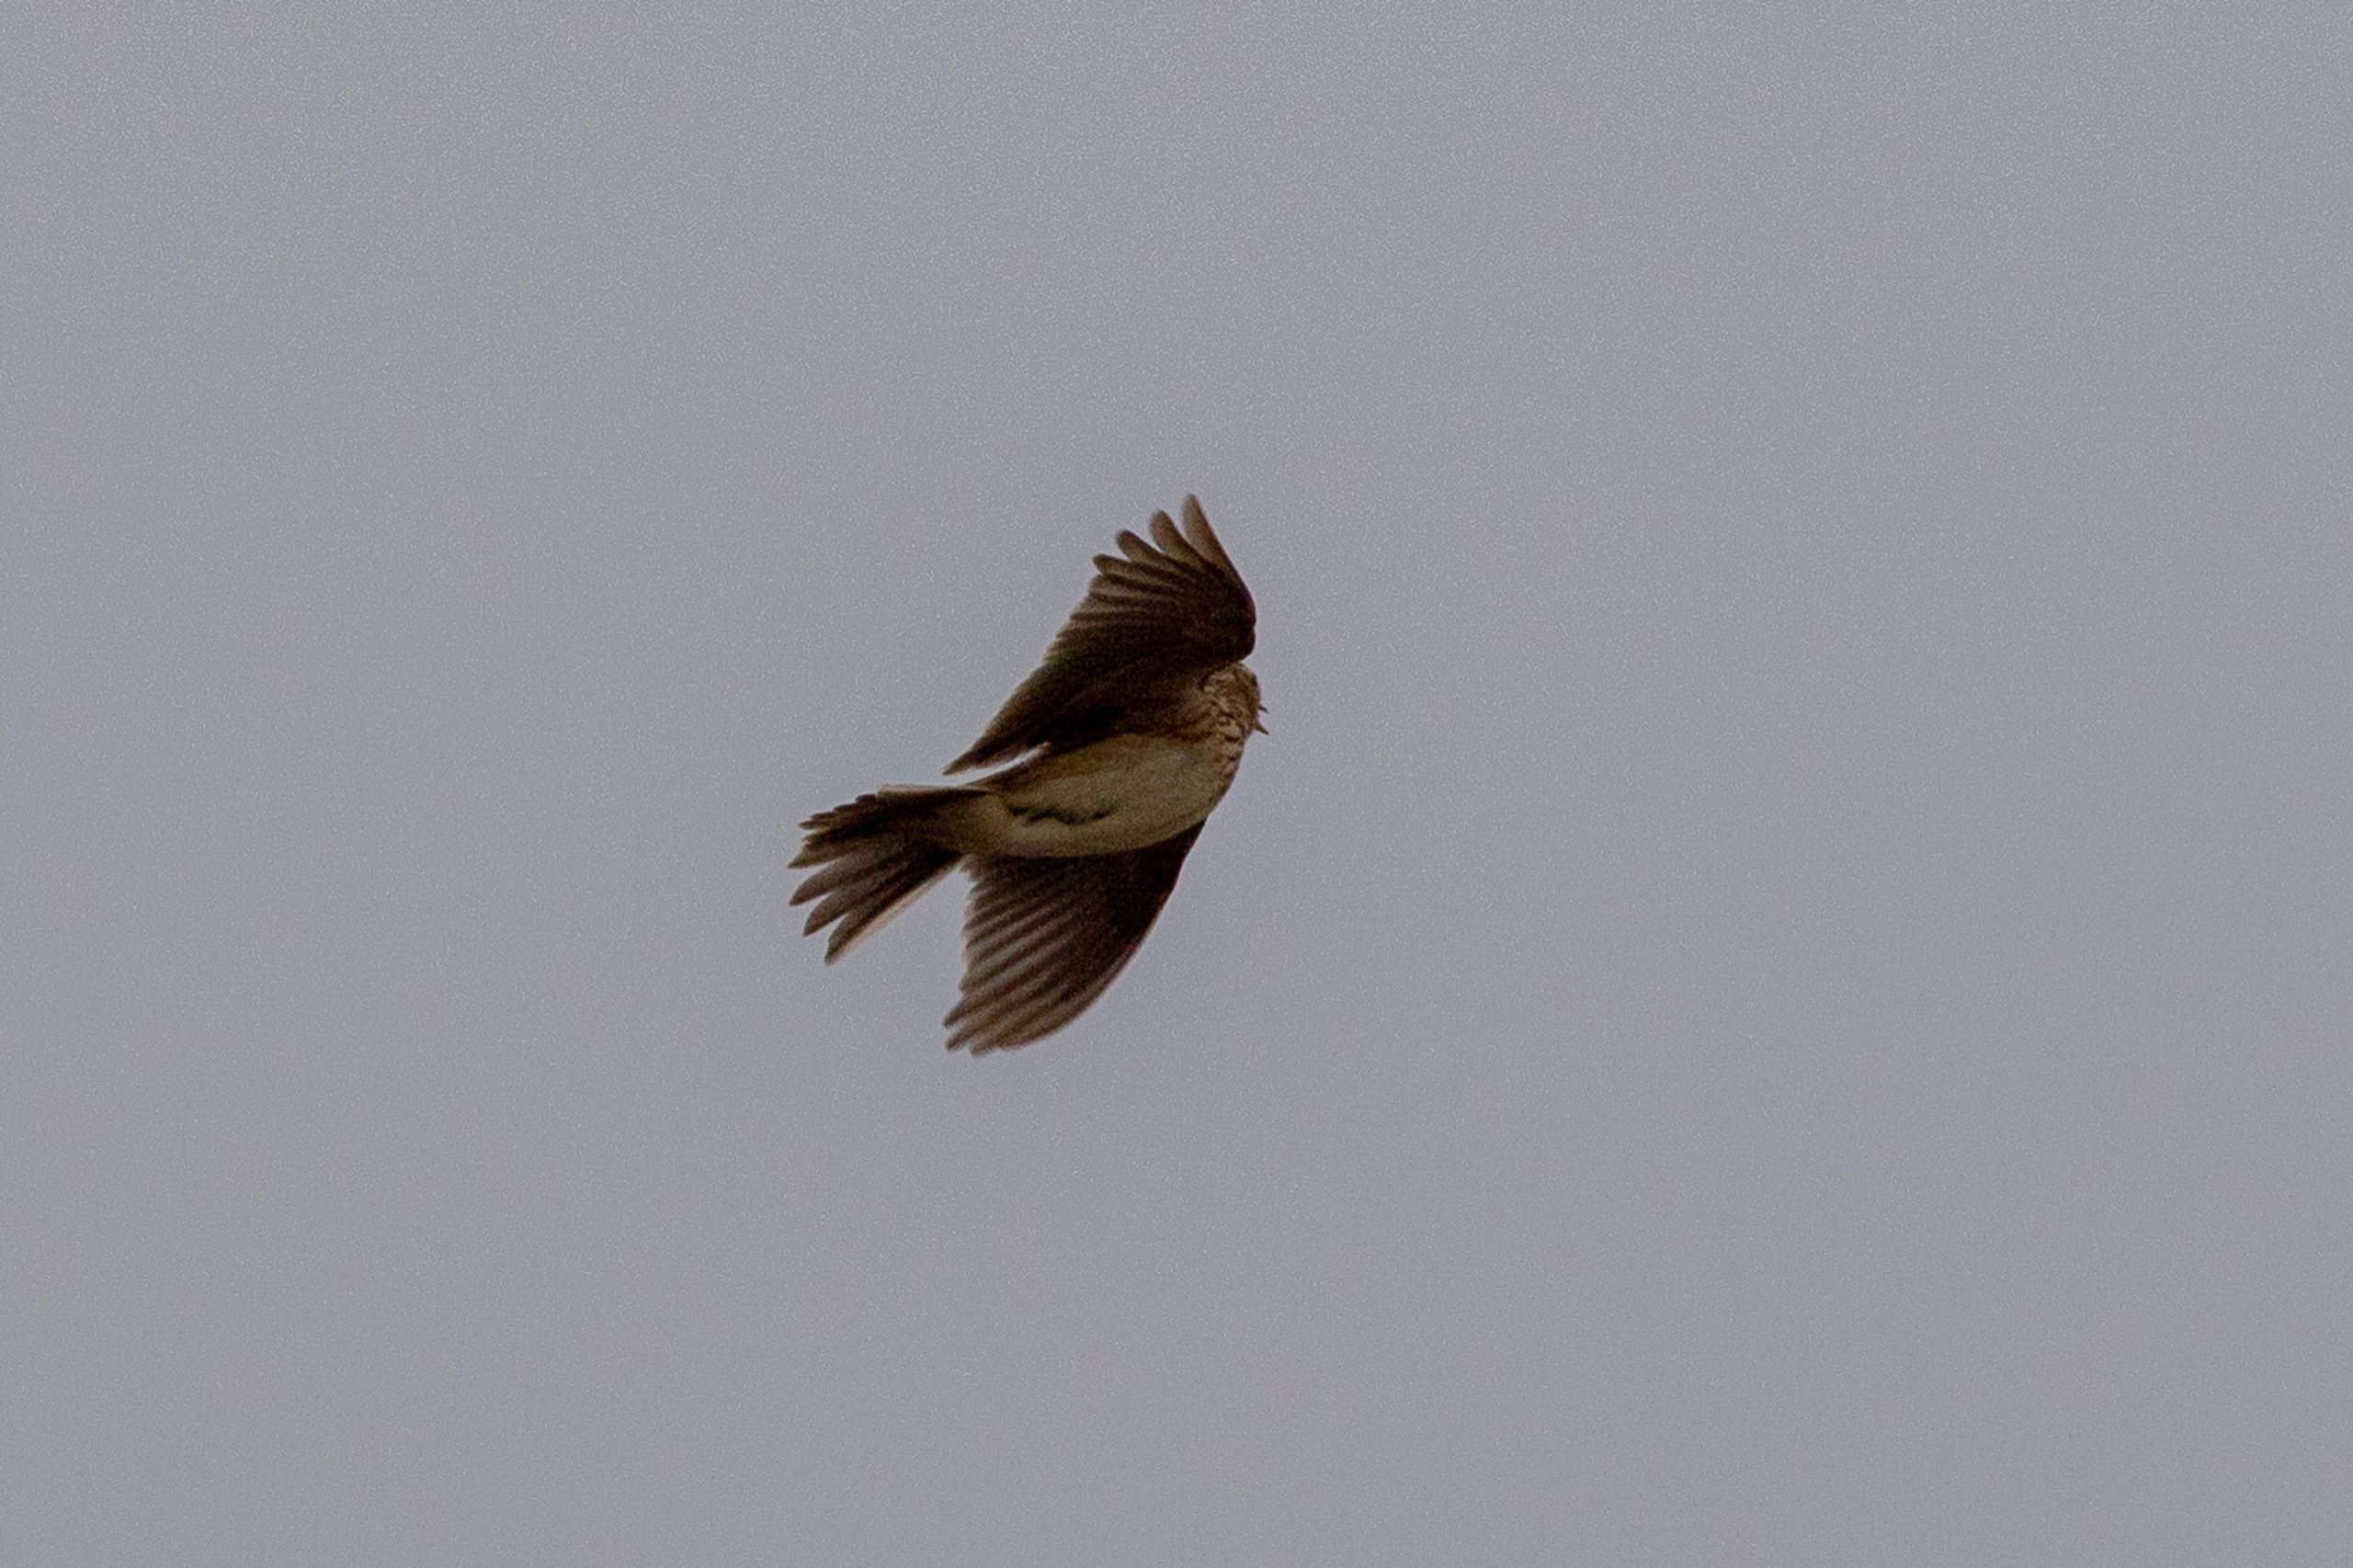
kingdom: Animalia
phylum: Chordata
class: Aves
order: Passeriformes
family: Alaudidae
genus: Alauda
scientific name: Alauda arvensis
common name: Sanglærke
